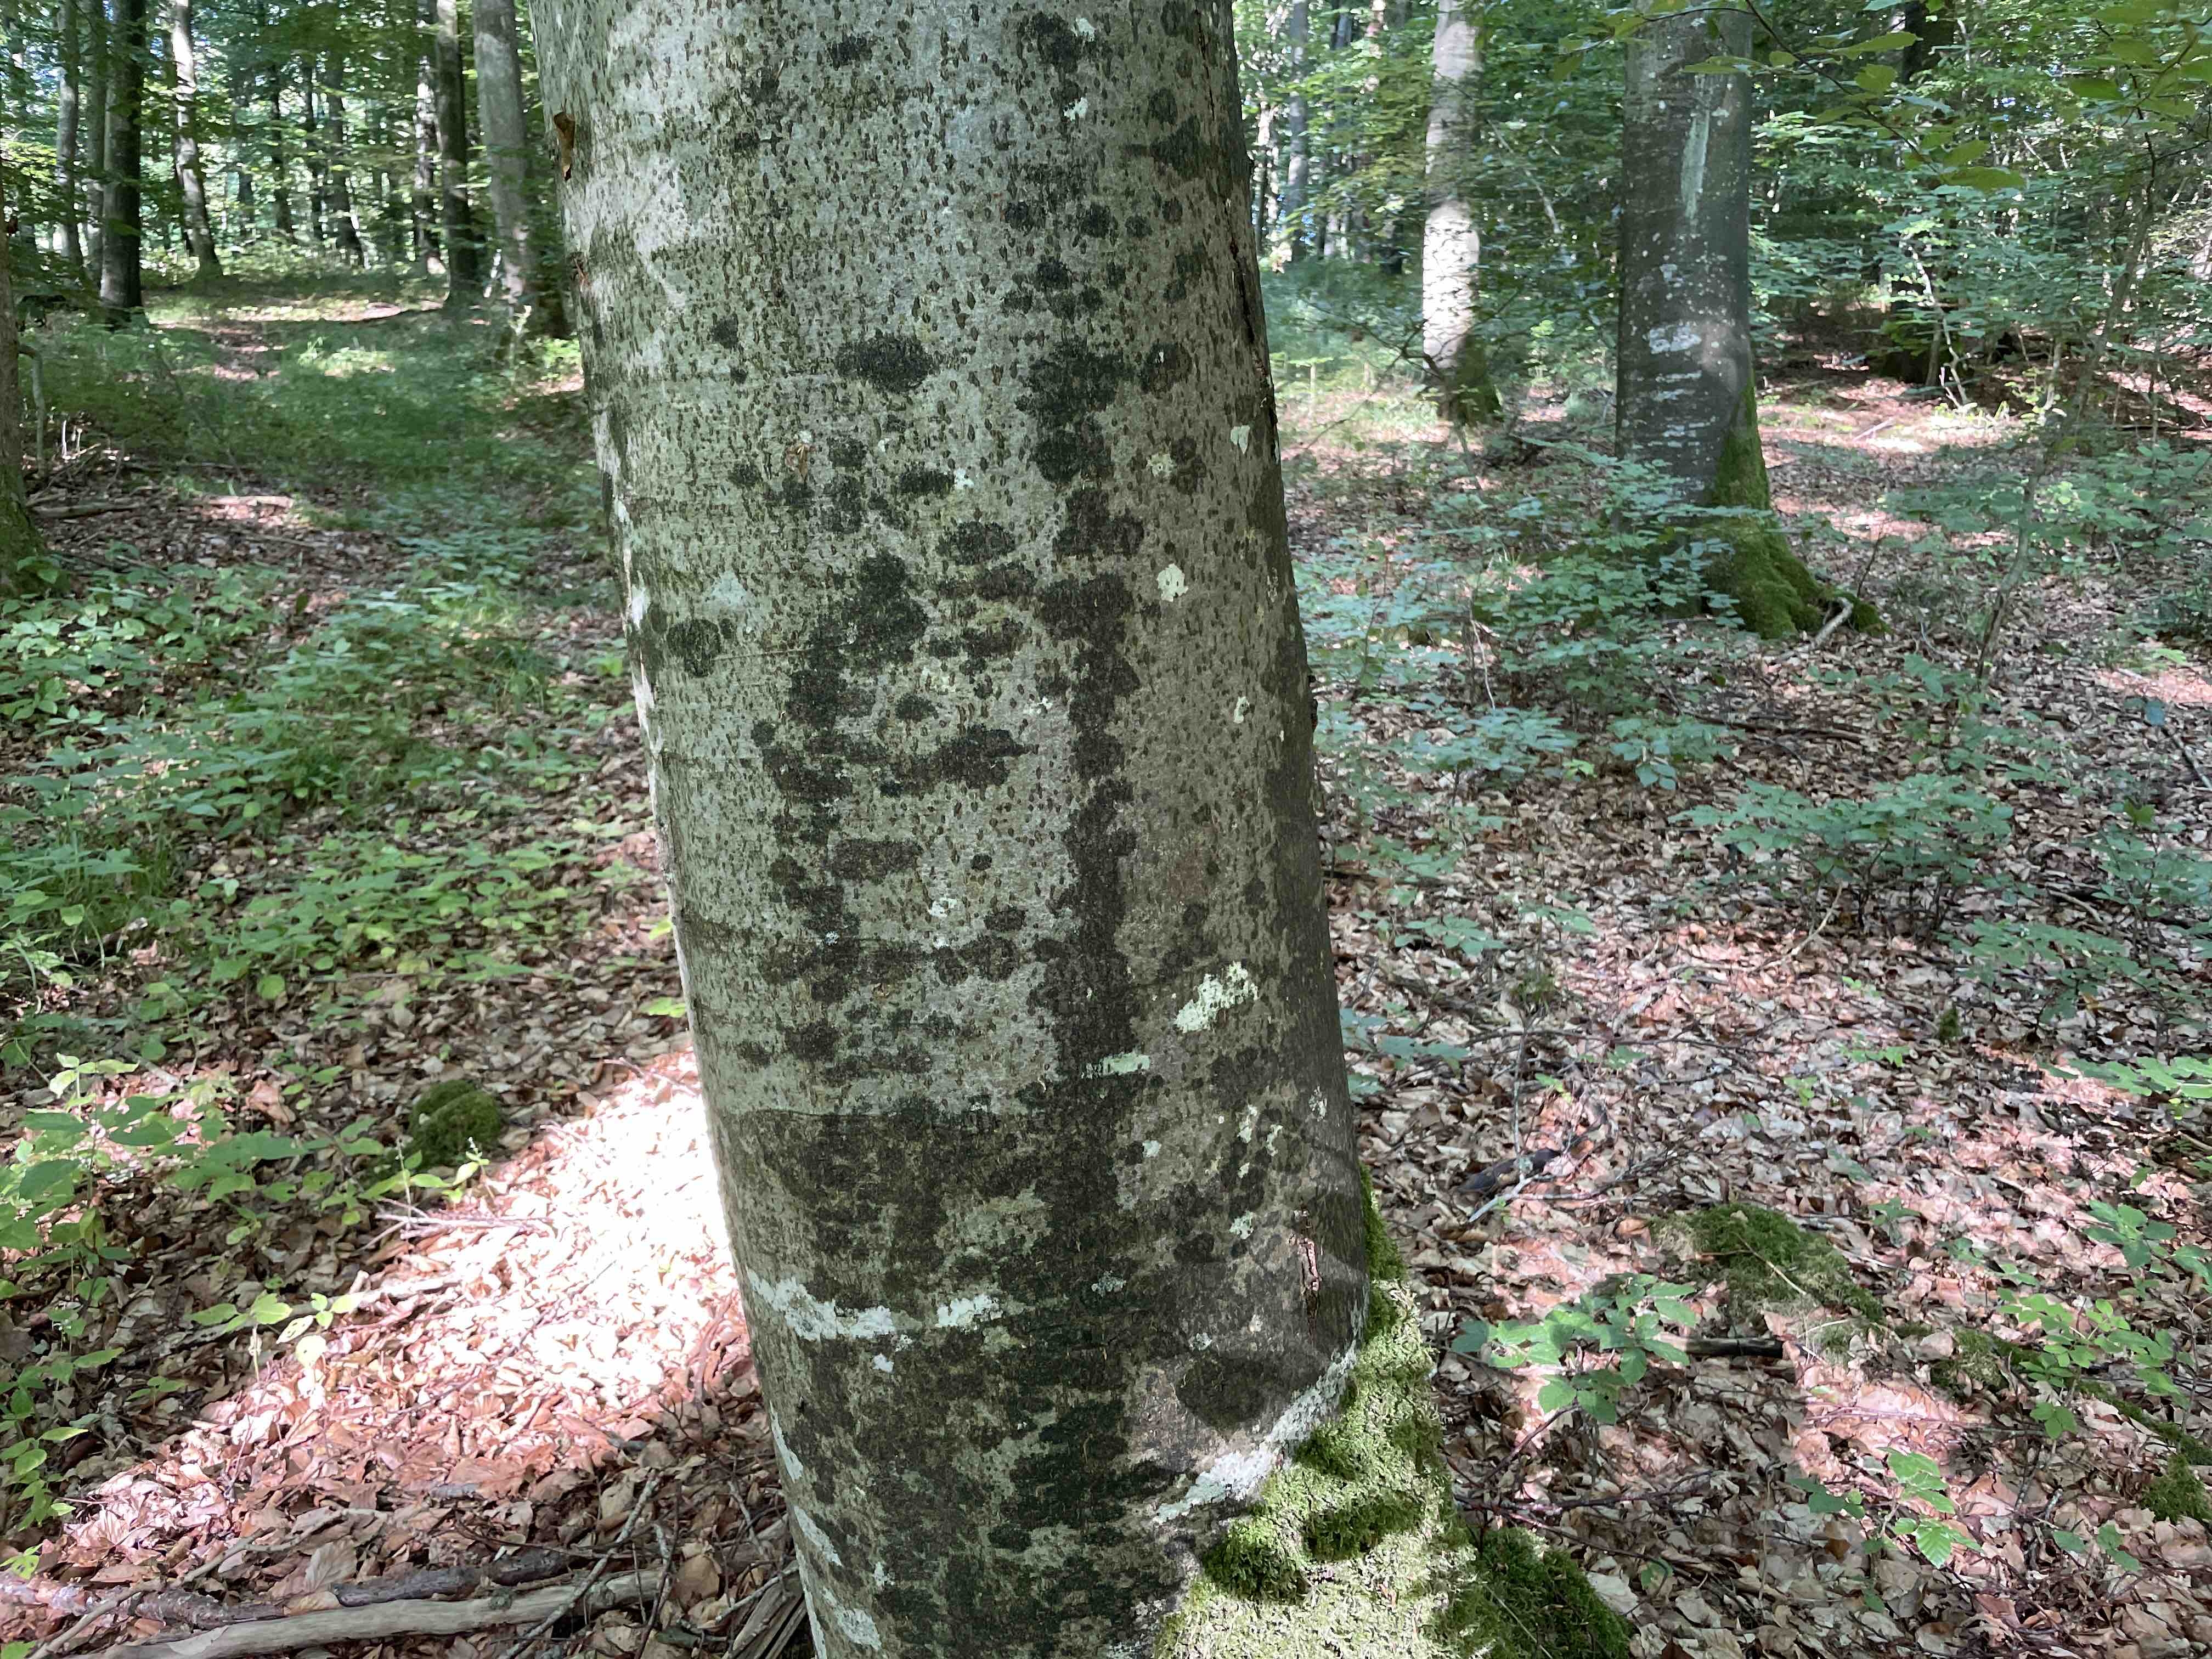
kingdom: Fungi
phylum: Ascomycota
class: Leotiomycetes
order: Rhytismatales
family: Ascodichaenaceae
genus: Ascodichaena
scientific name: Ascodichaena rugosa
